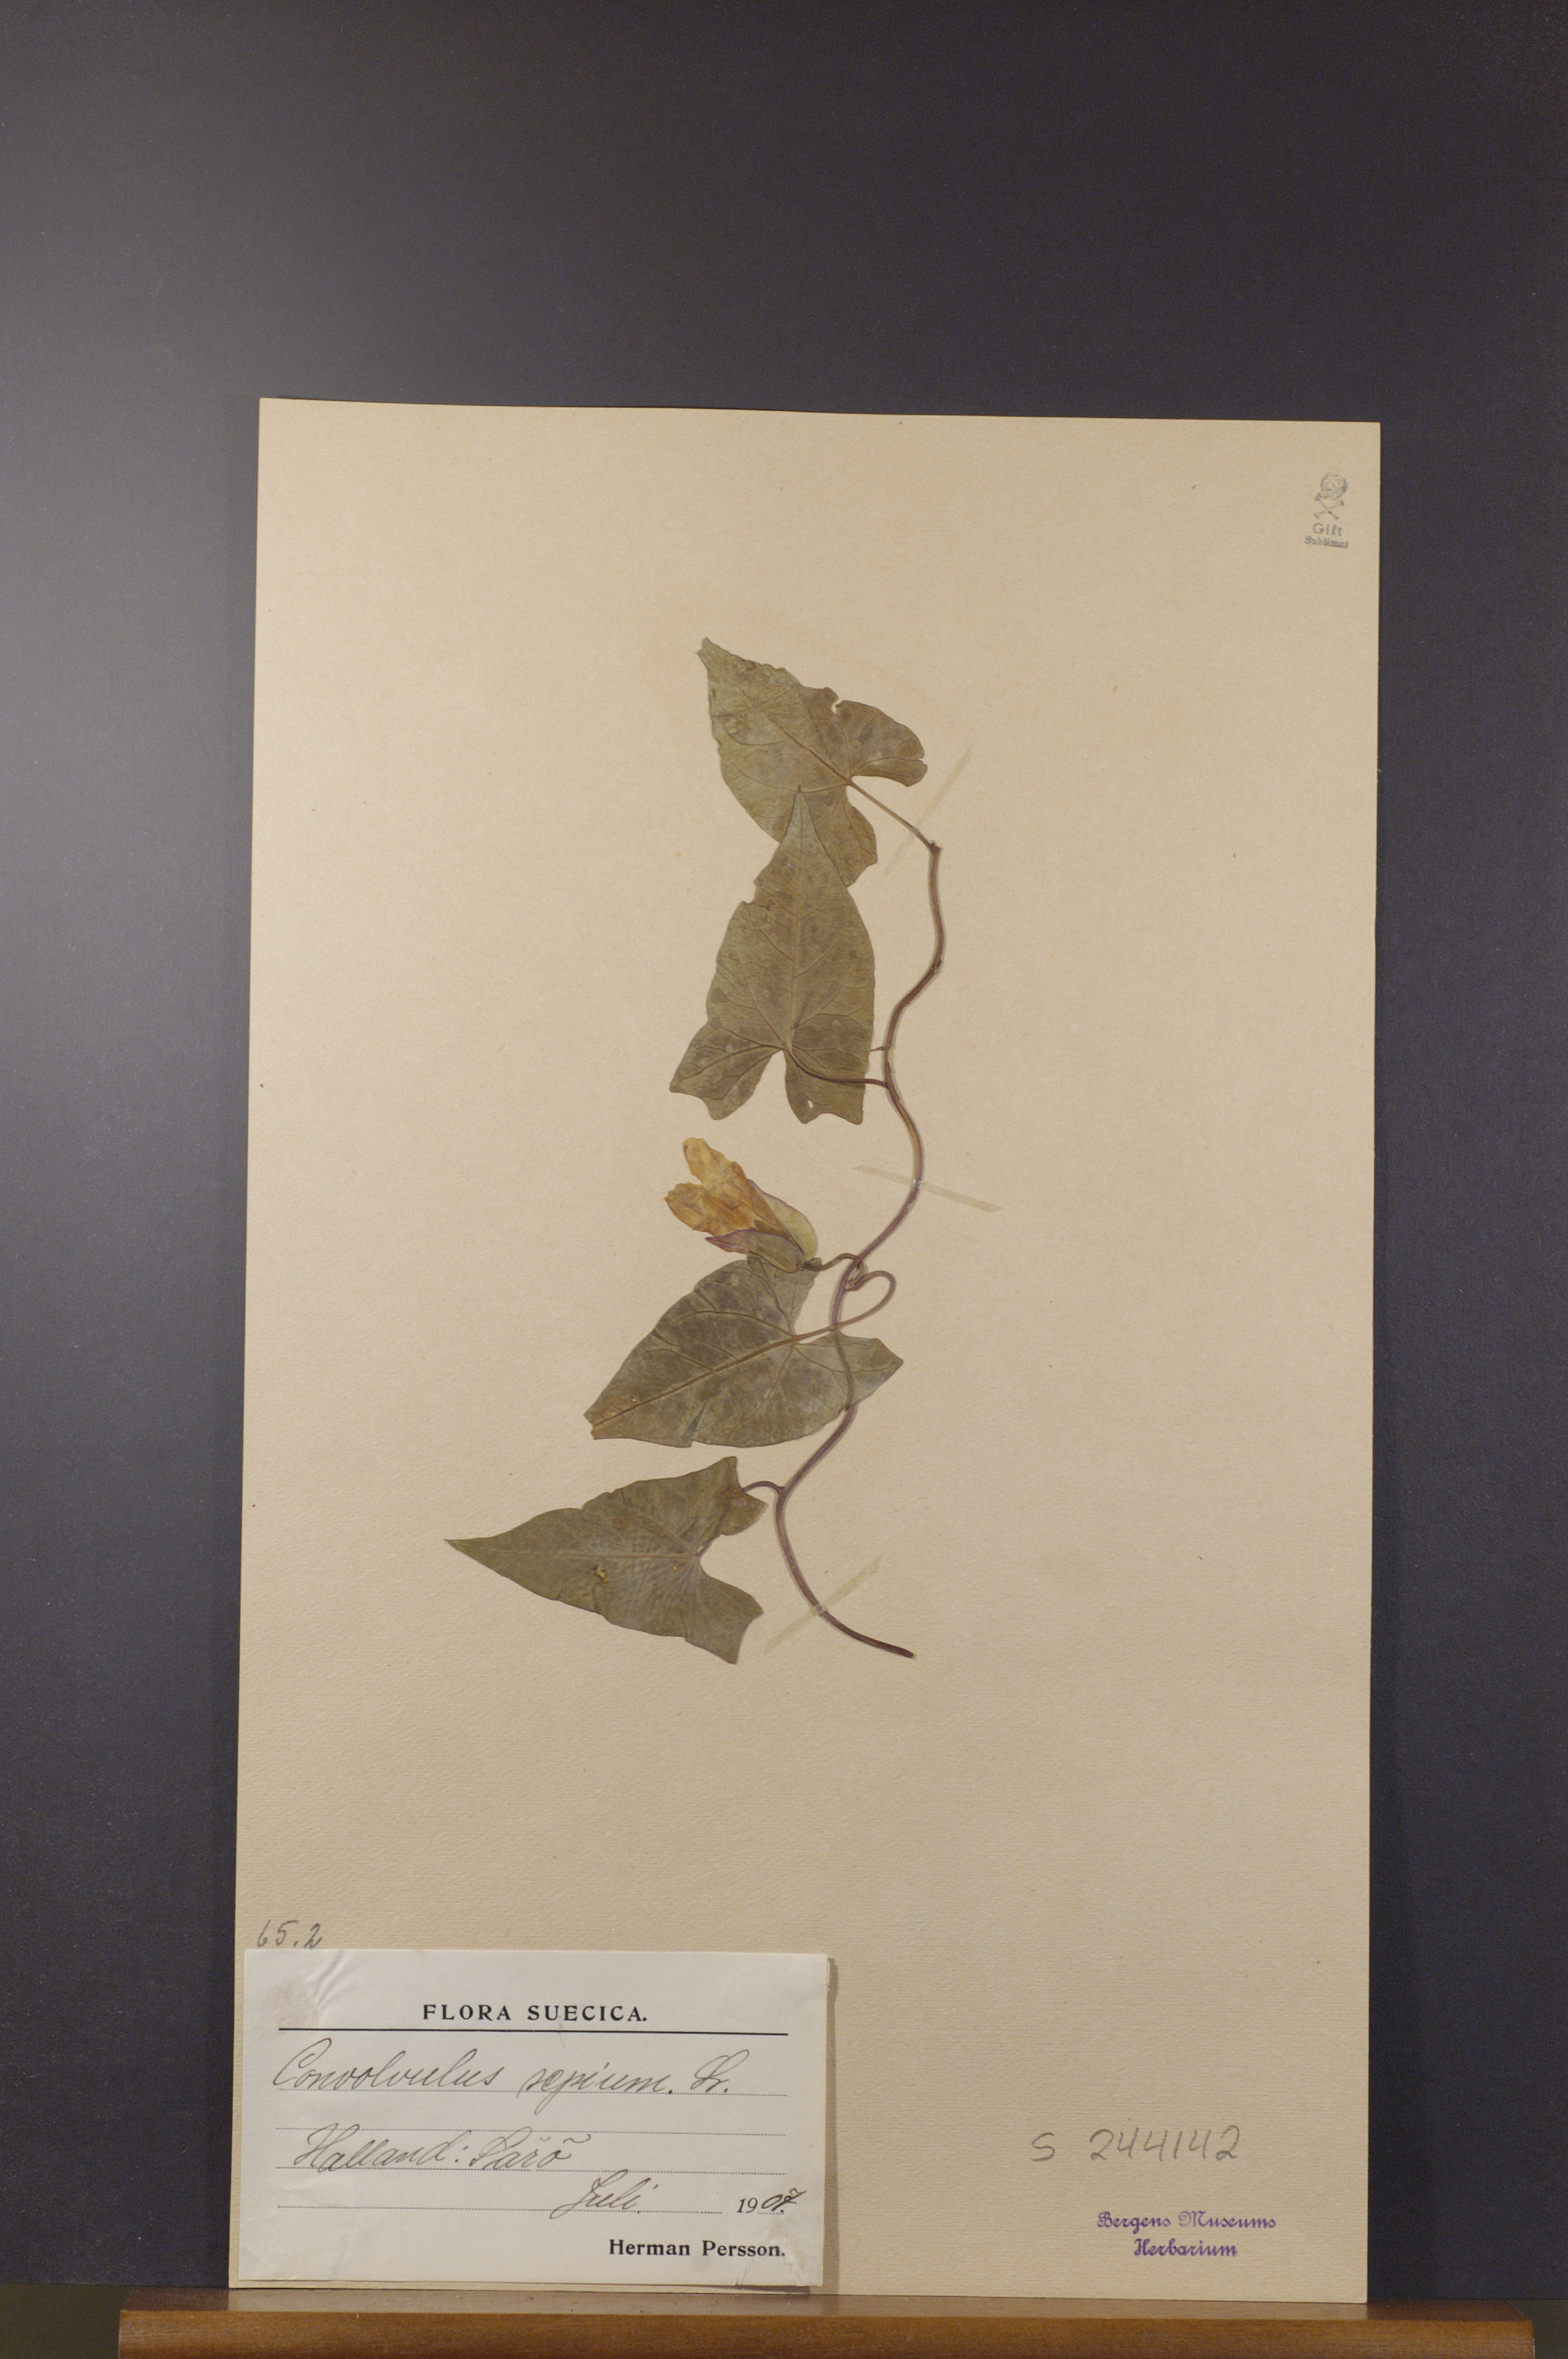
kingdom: Plantae
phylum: Tracheophyta
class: Magnoliopsida
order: Solanales
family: Convolvulaceae
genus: Calystegia
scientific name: Calystegia sepium
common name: Hedge bindweed
